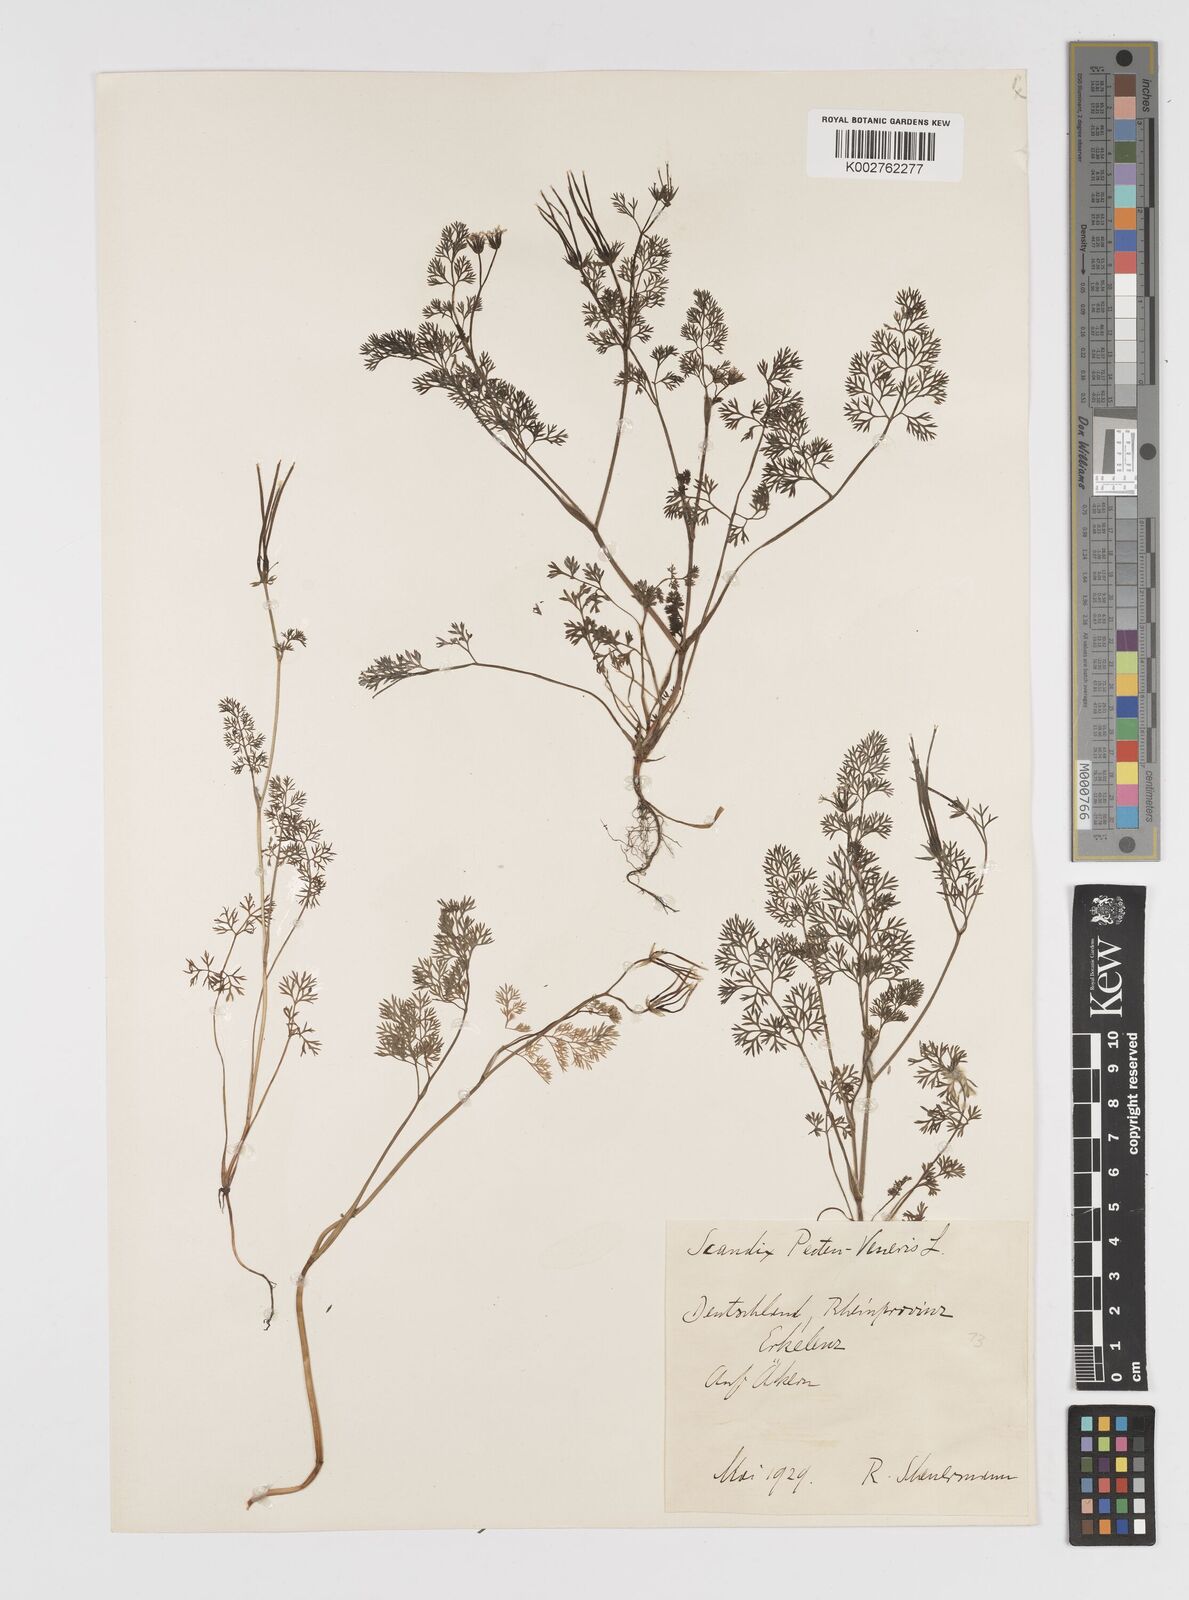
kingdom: Plantae
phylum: Tracheophyta
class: Magnoliopsida
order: Apiales
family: Apiaceae
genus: Scandix
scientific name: Scandix pecten-veneris
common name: Shepherd's-needle
